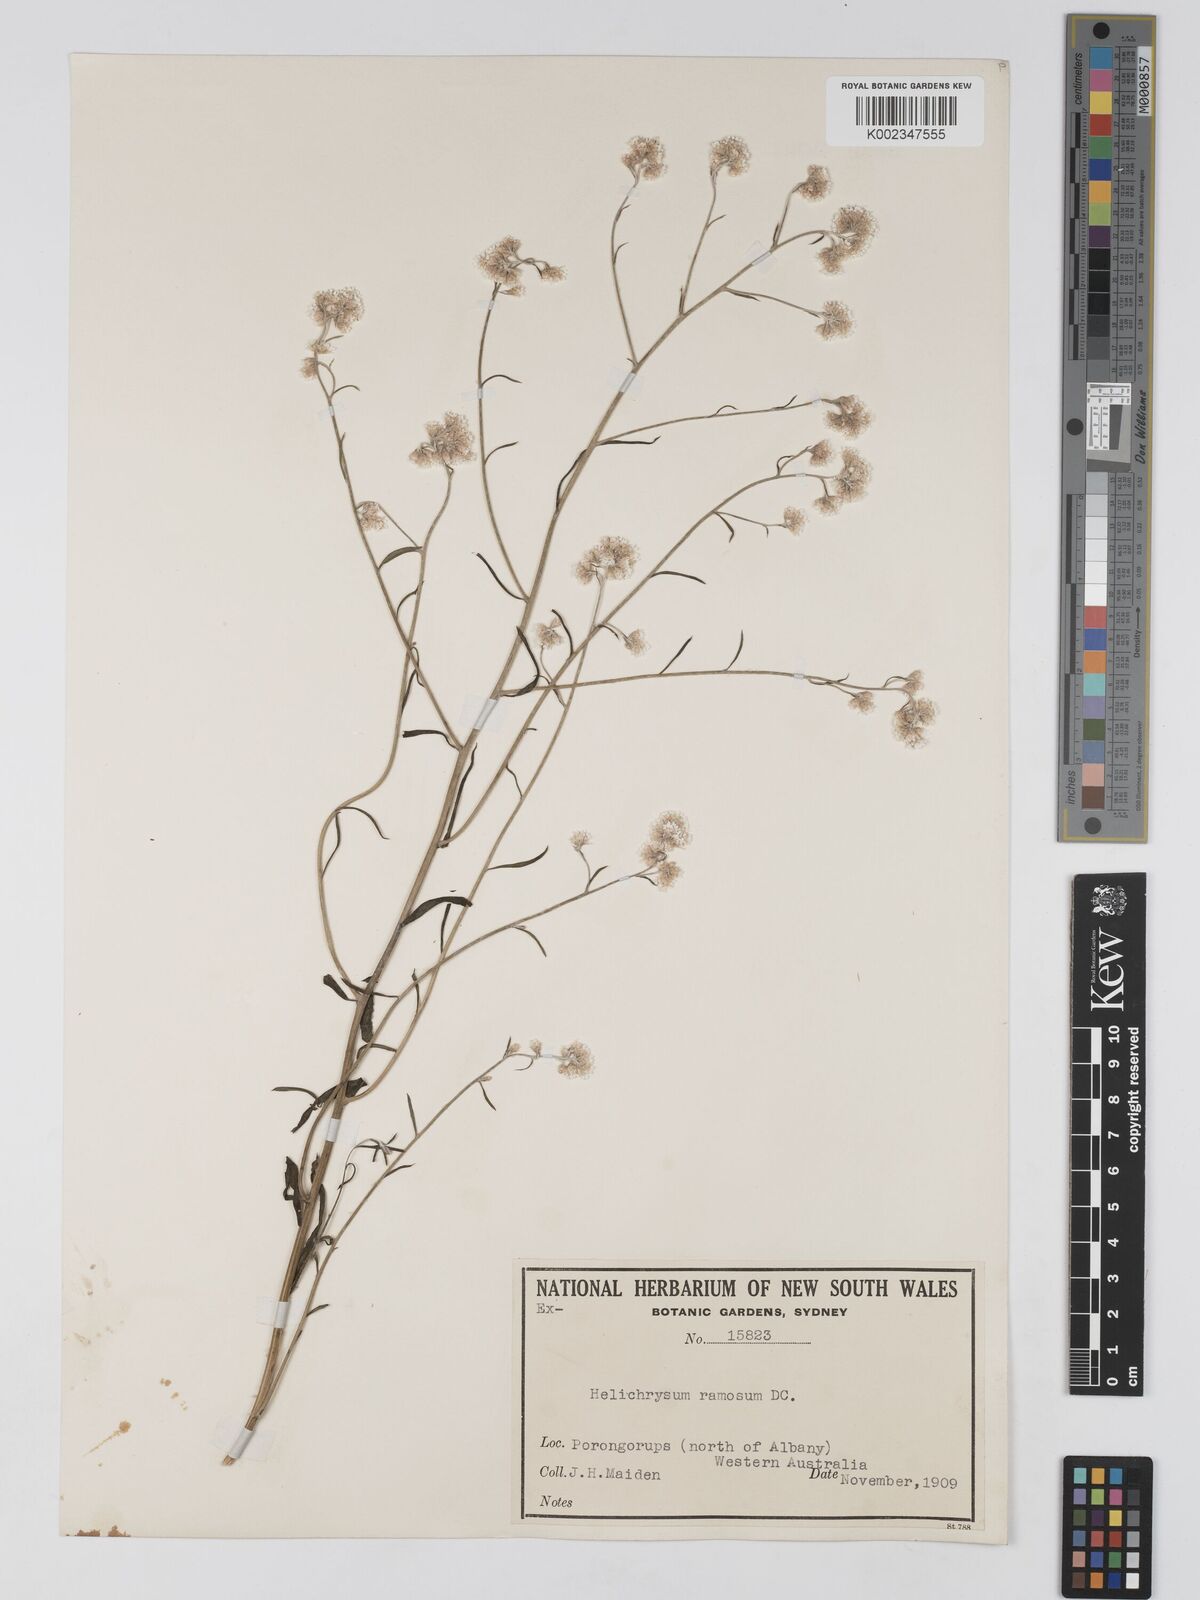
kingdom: Plantae
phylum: Tracheophyta
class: Magnoliopsida
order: Asterales
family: Asteraceae
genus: Pithocarpa
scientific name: Pithocarpa ramosa
